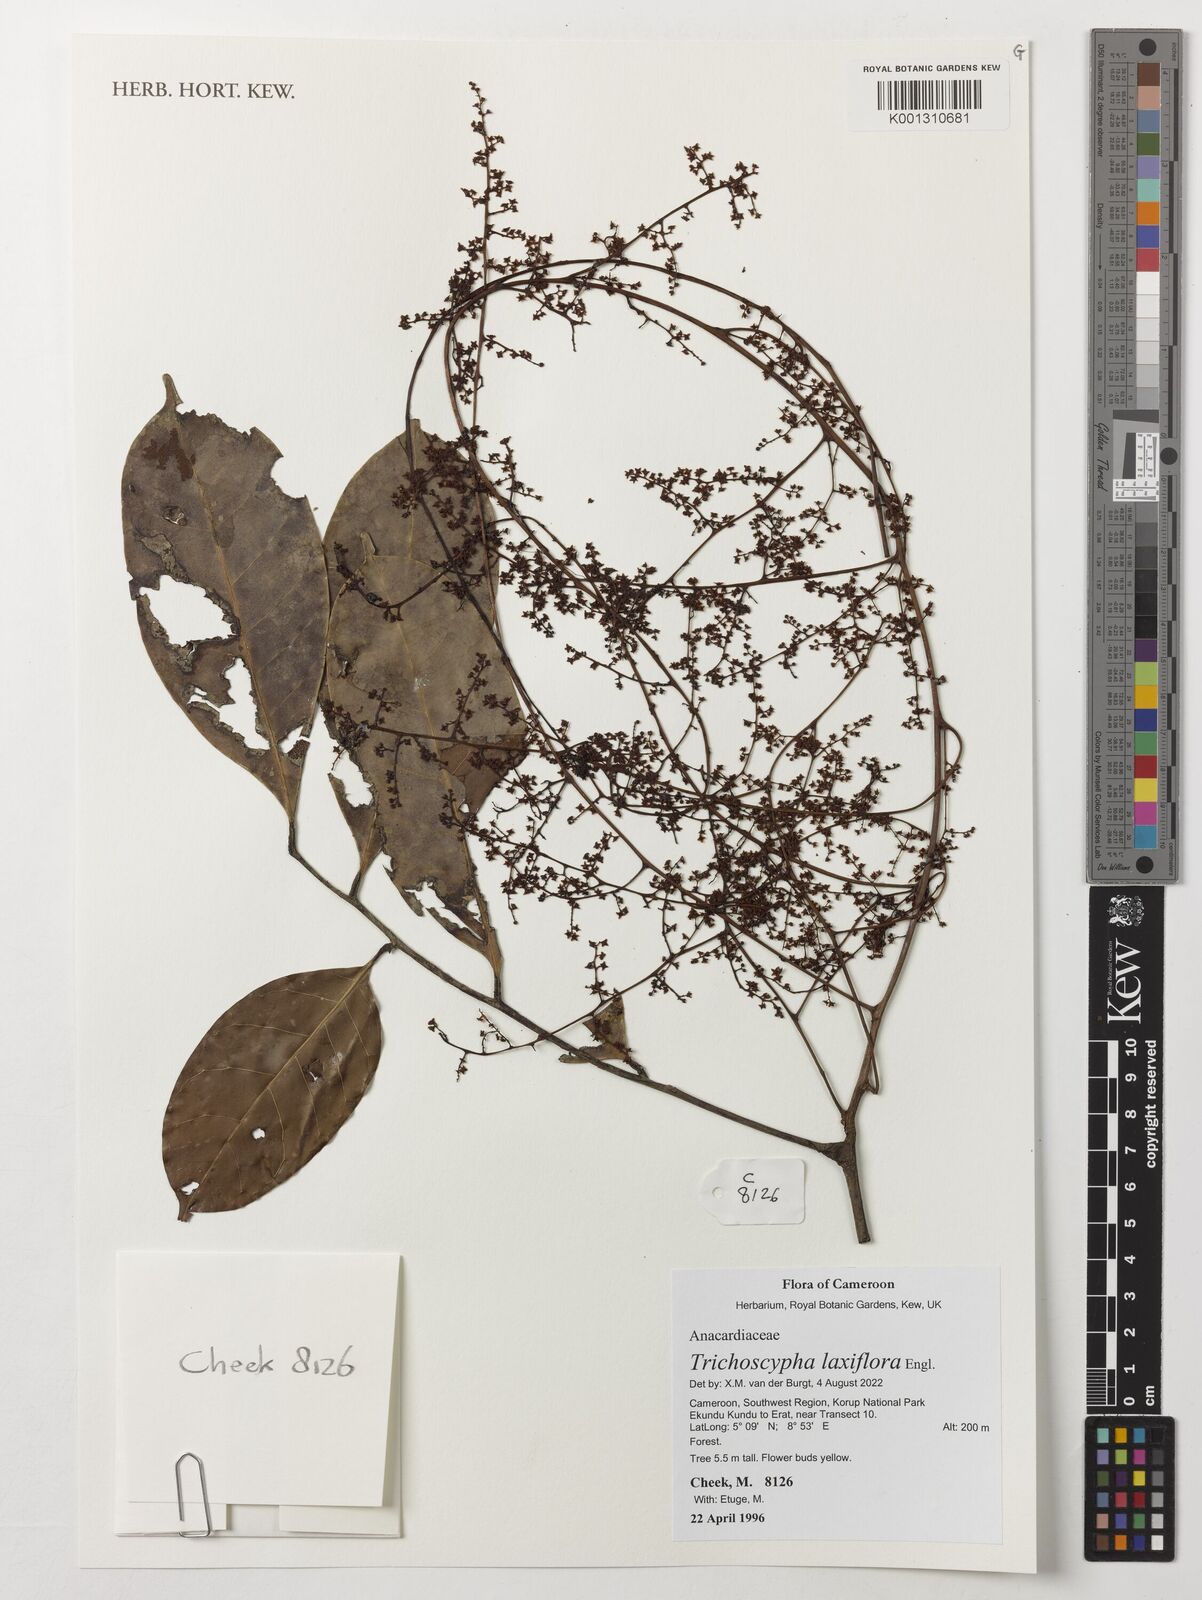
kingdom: Plantae
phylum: Tracheophyta
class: Magnoliopsida
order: Sapindales
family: Anacardiaceae
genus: Trichoscypha
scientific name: Trichoscypha laxiflora
